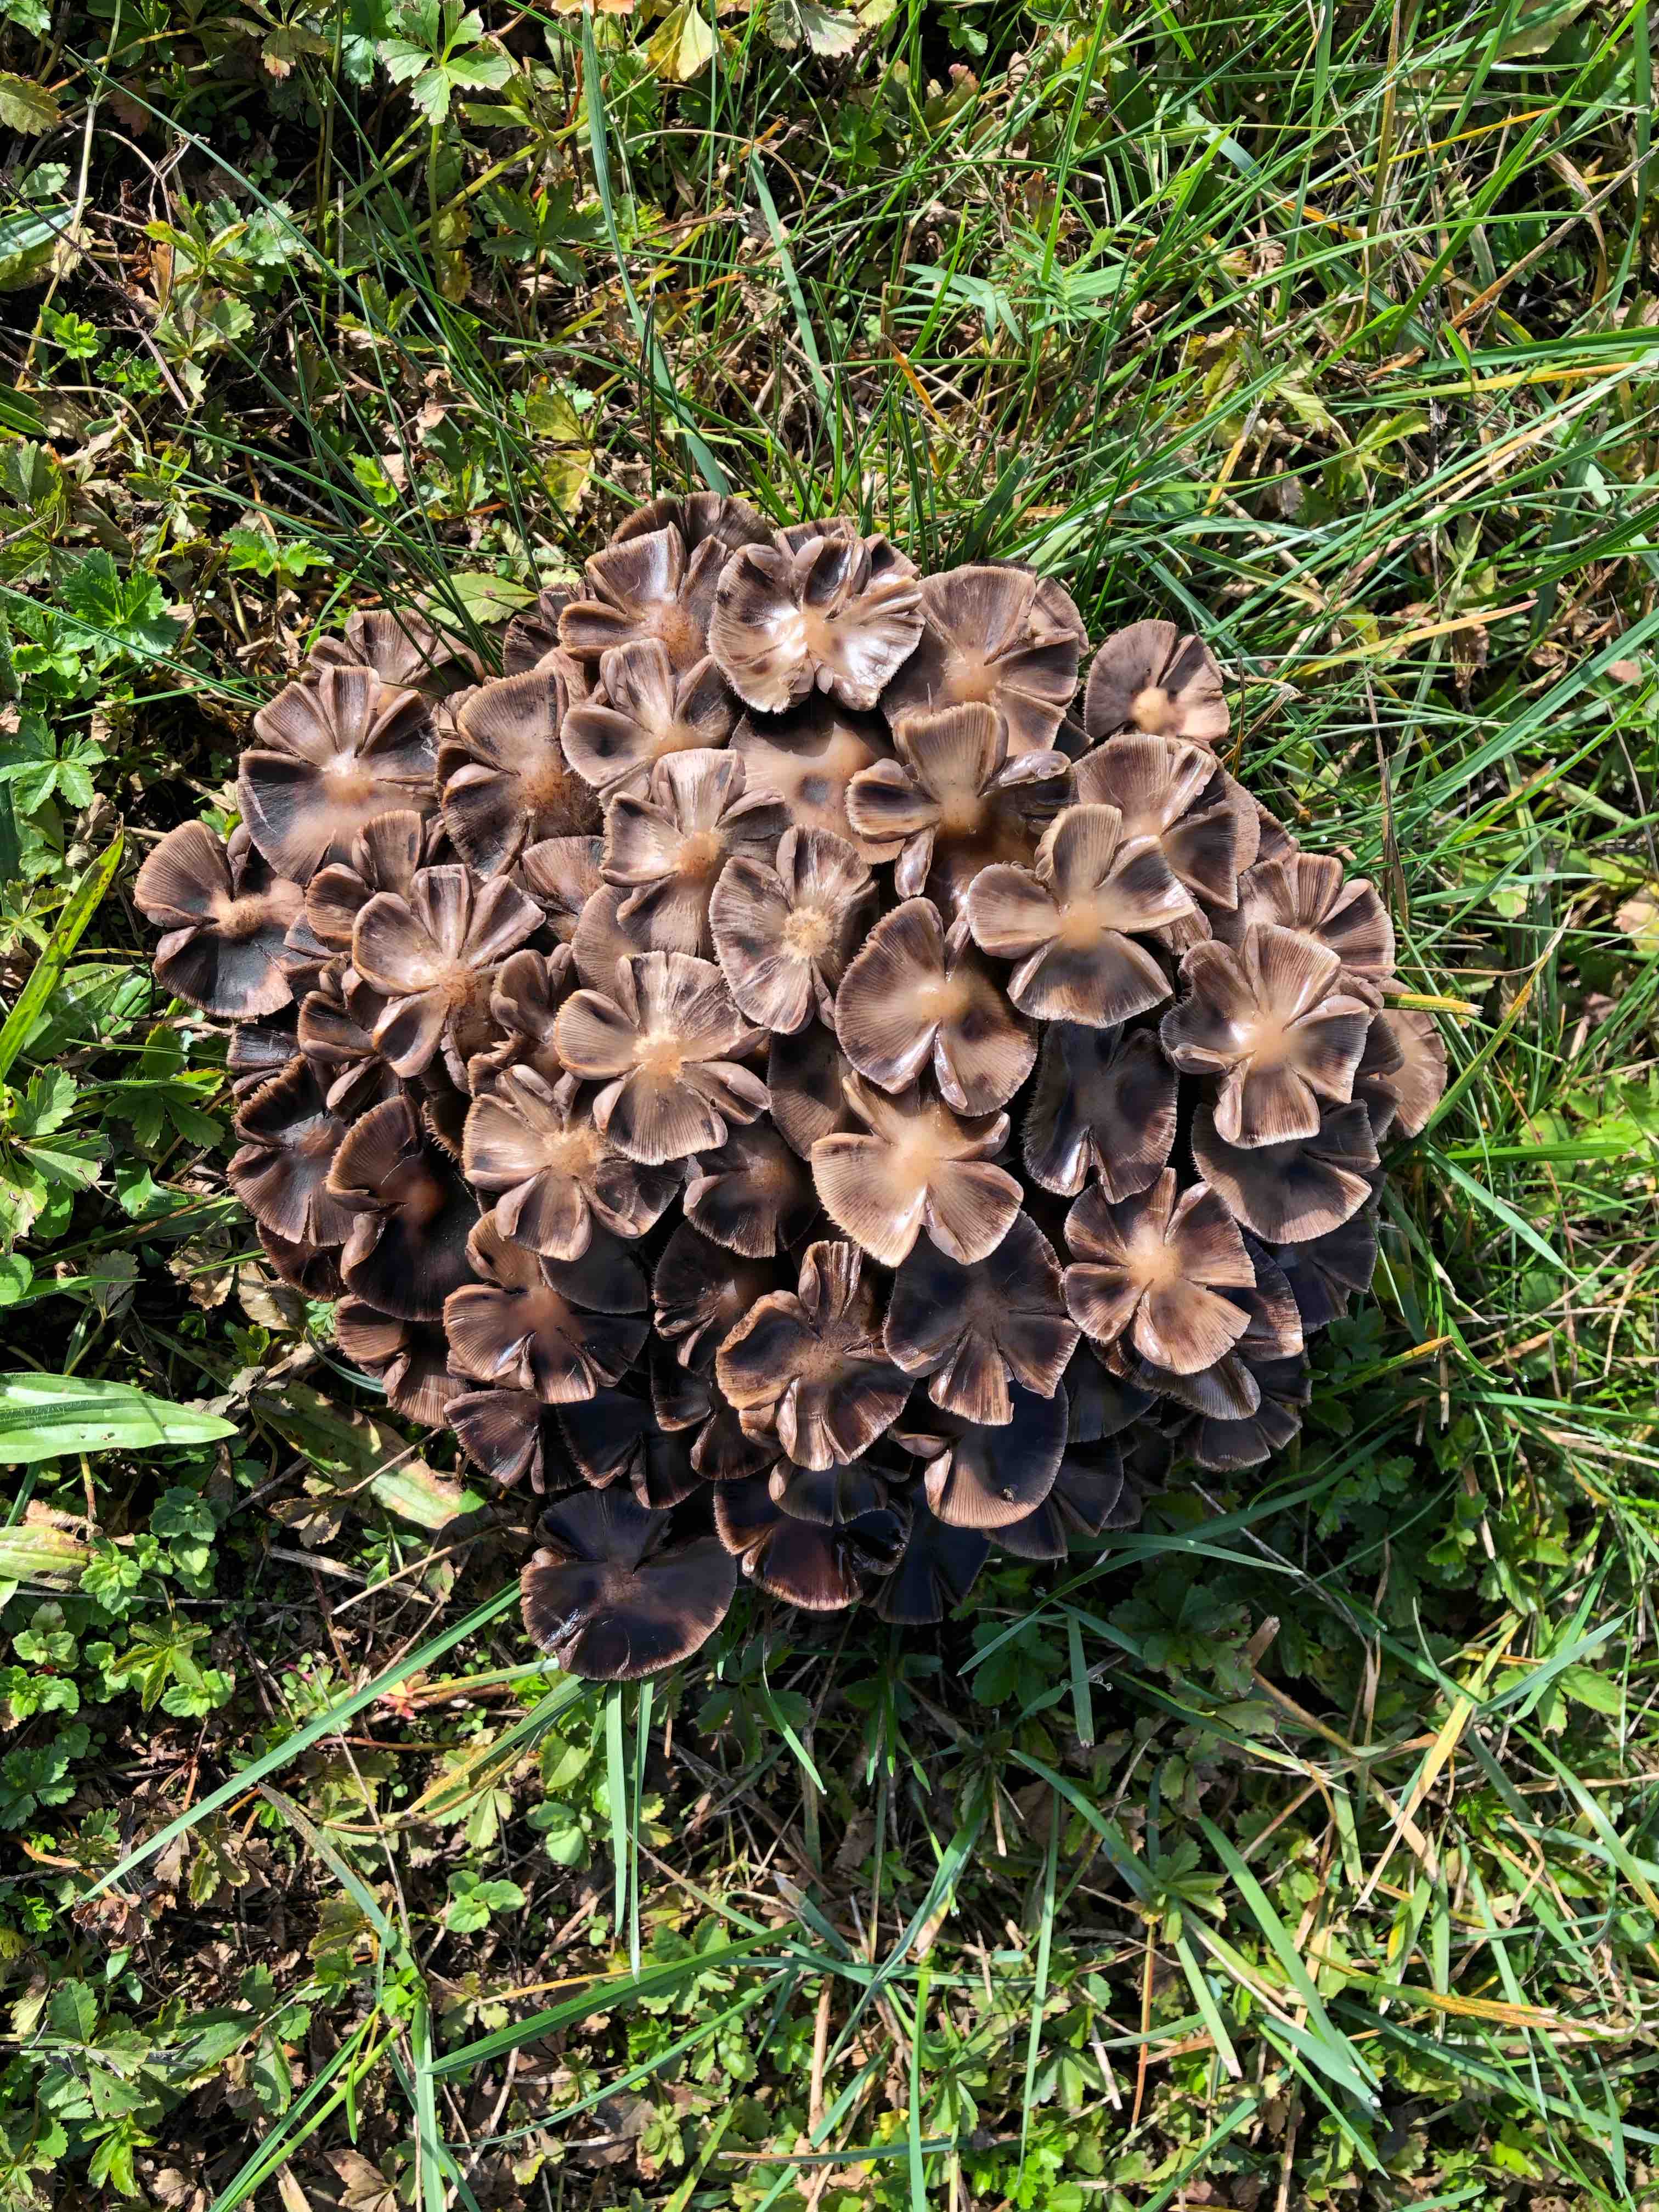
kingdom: Fungi
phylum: Basidiomycota
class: Agaricomycetes
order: Agaricales
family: Psathyrellaceae
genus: Psathyrella
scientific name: Psathyrella piluliformis
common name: lysstokket mørkhat
